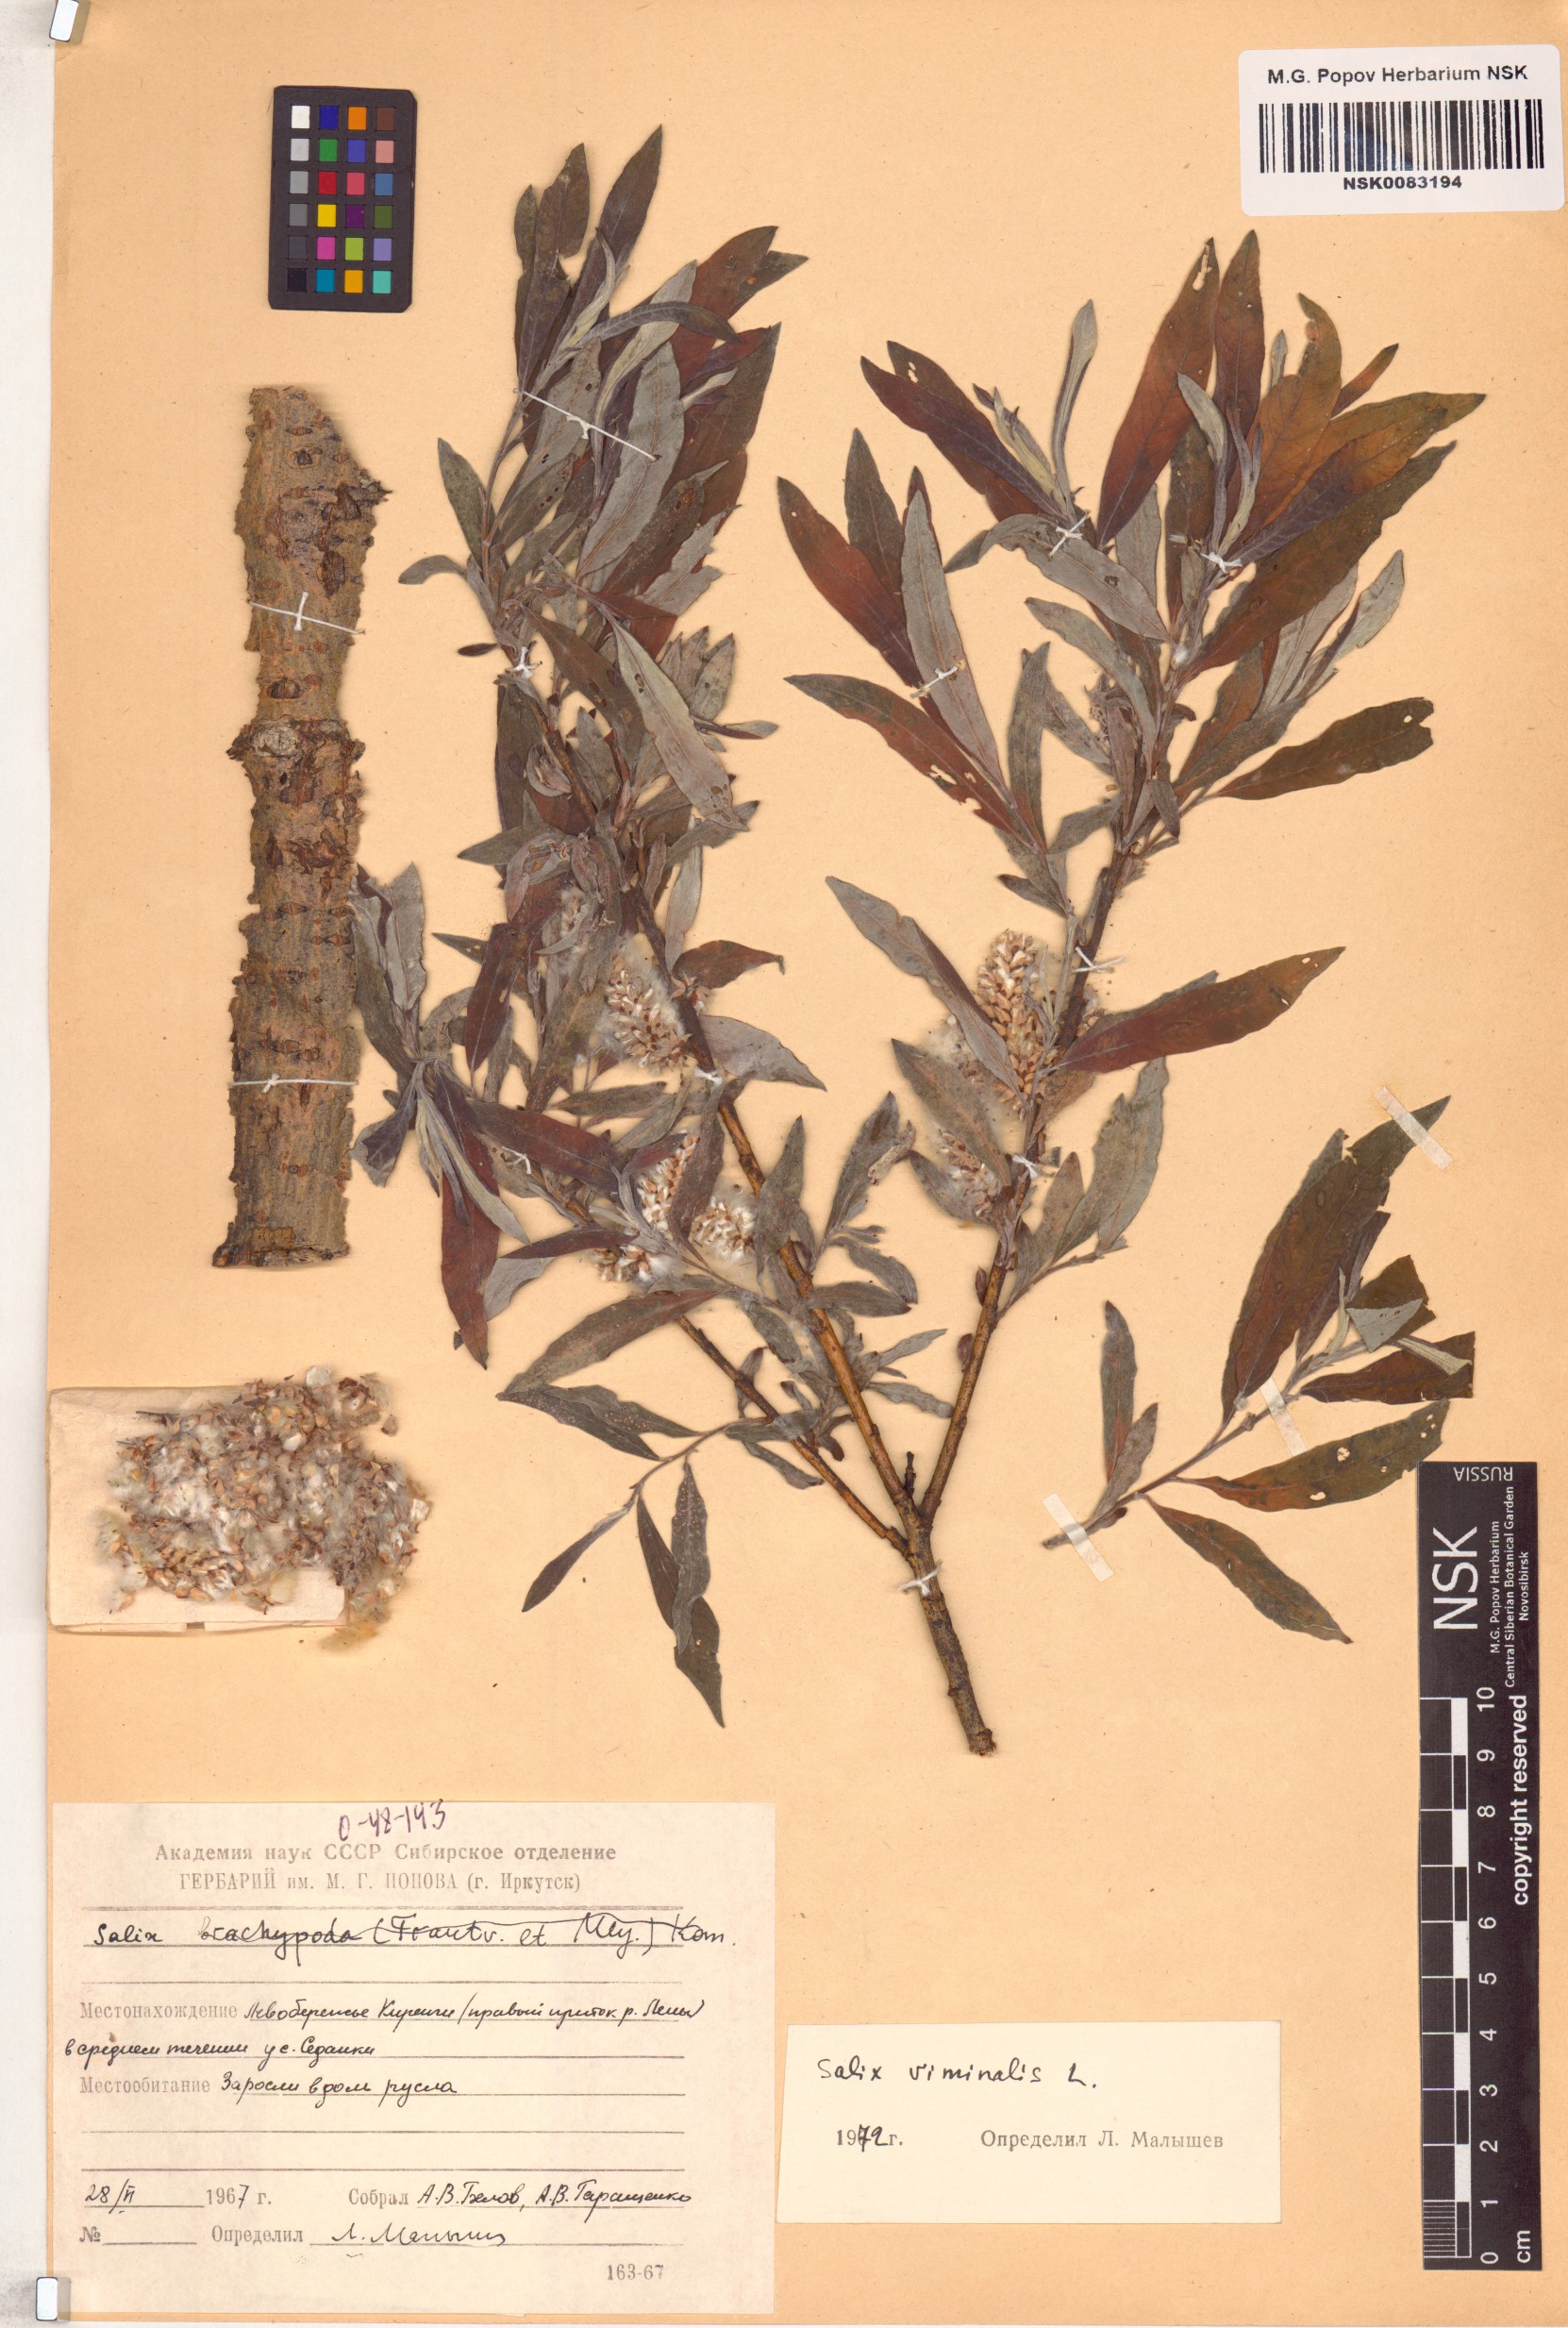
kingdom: Plantae
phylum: Tracheophyta
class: Magnoliopsida
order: Malpighiales
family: Salicaceae
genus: Salix
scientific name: Salix viminalis
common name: Osier
